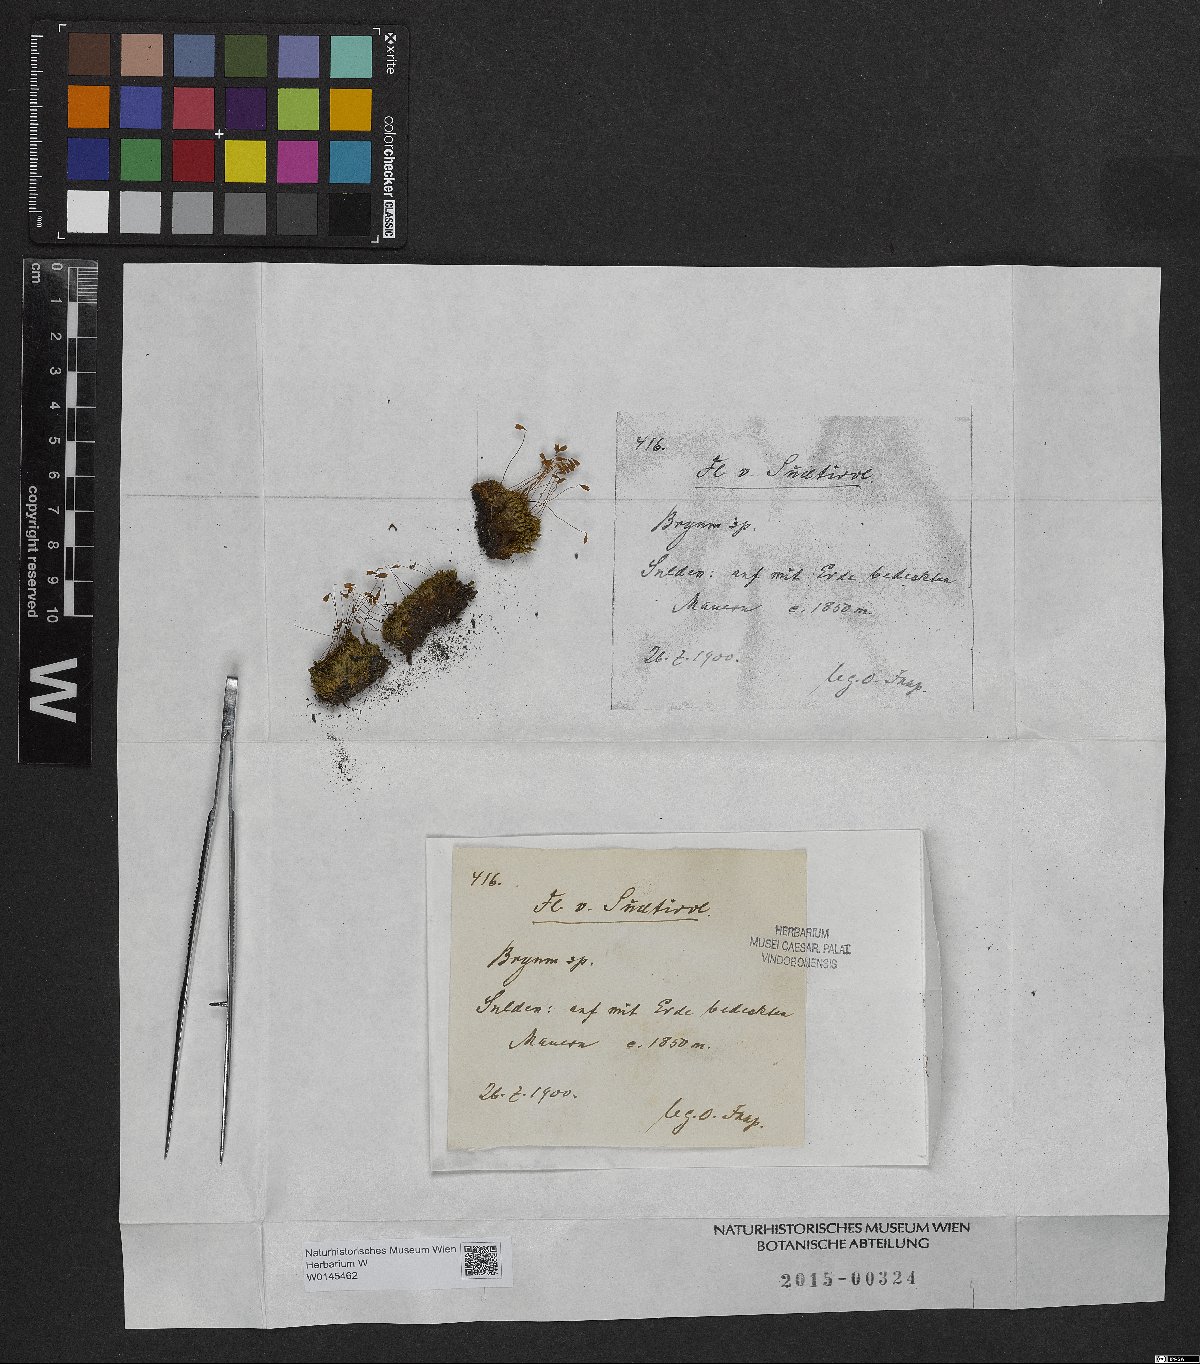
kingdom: Plantae
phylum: Bryophyta
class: Bryopsida
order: Bryales
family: Bryaceae
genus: Bryum
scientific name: Bryum
